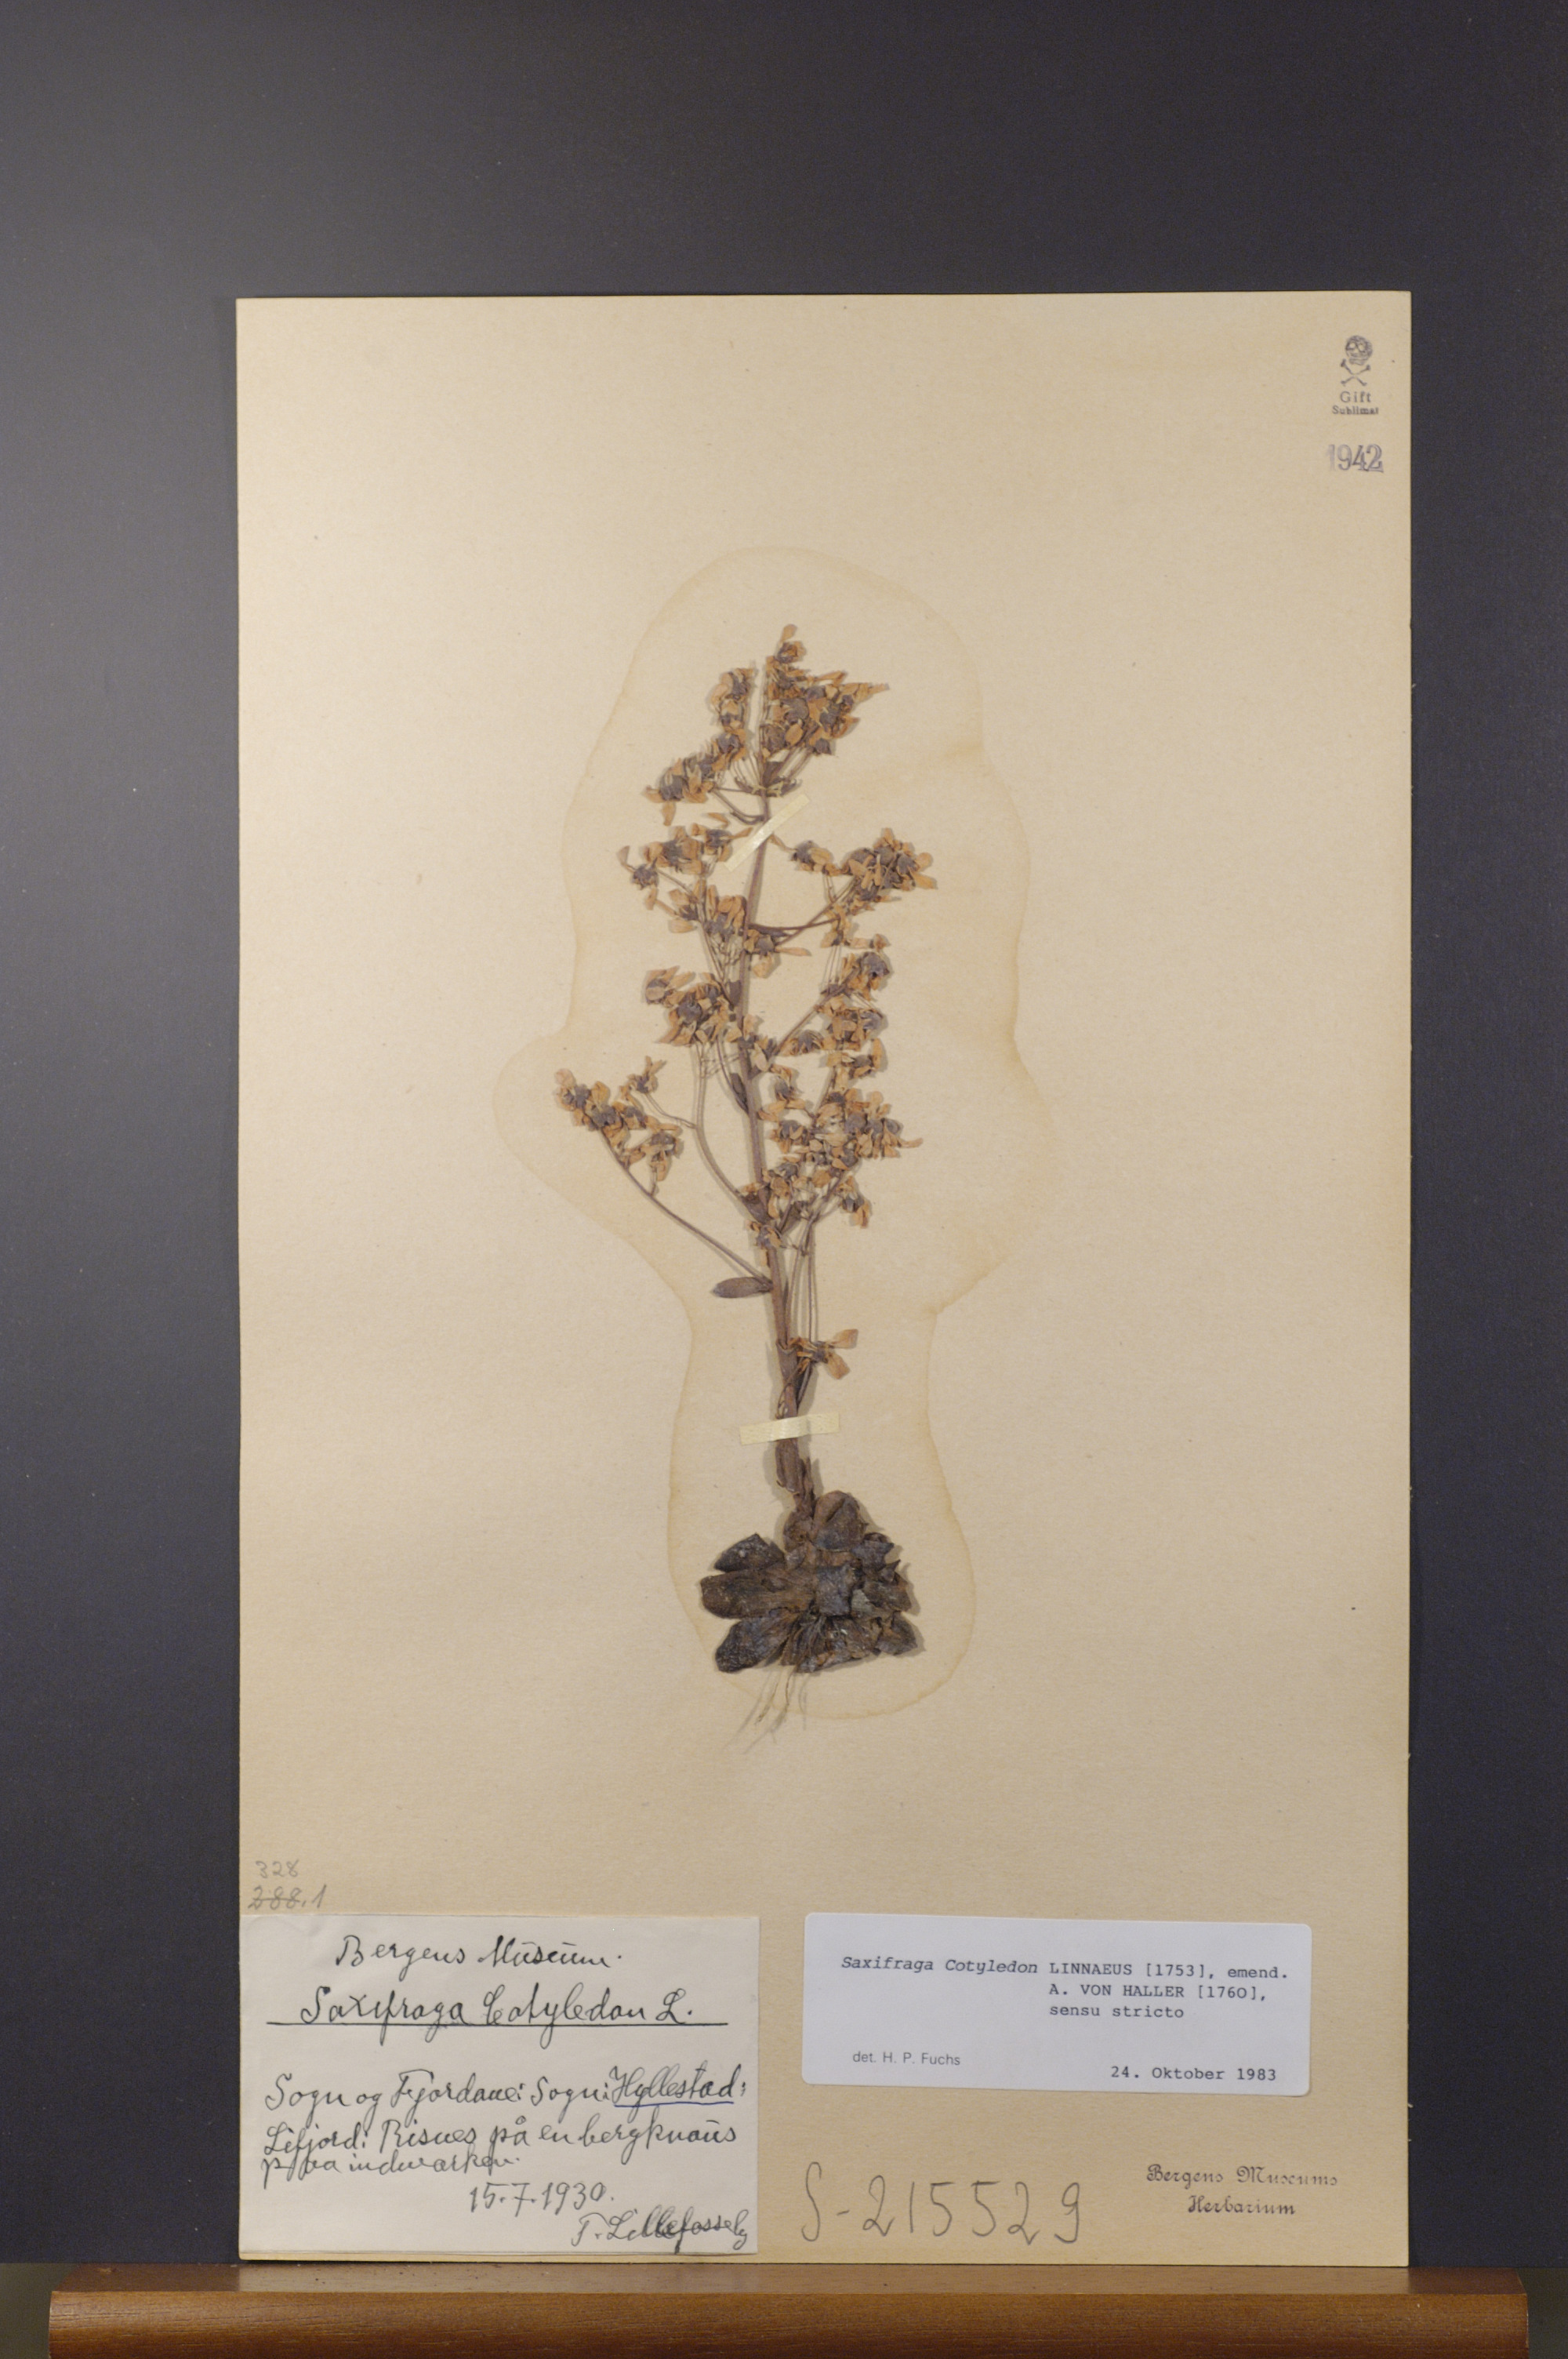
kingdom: Plantae
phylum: Tracheophyta
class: Magnoliopsida
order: Saxifragales
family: Saxifragaceae
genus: Saxifraga
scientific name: Saxifraga cotyledon
